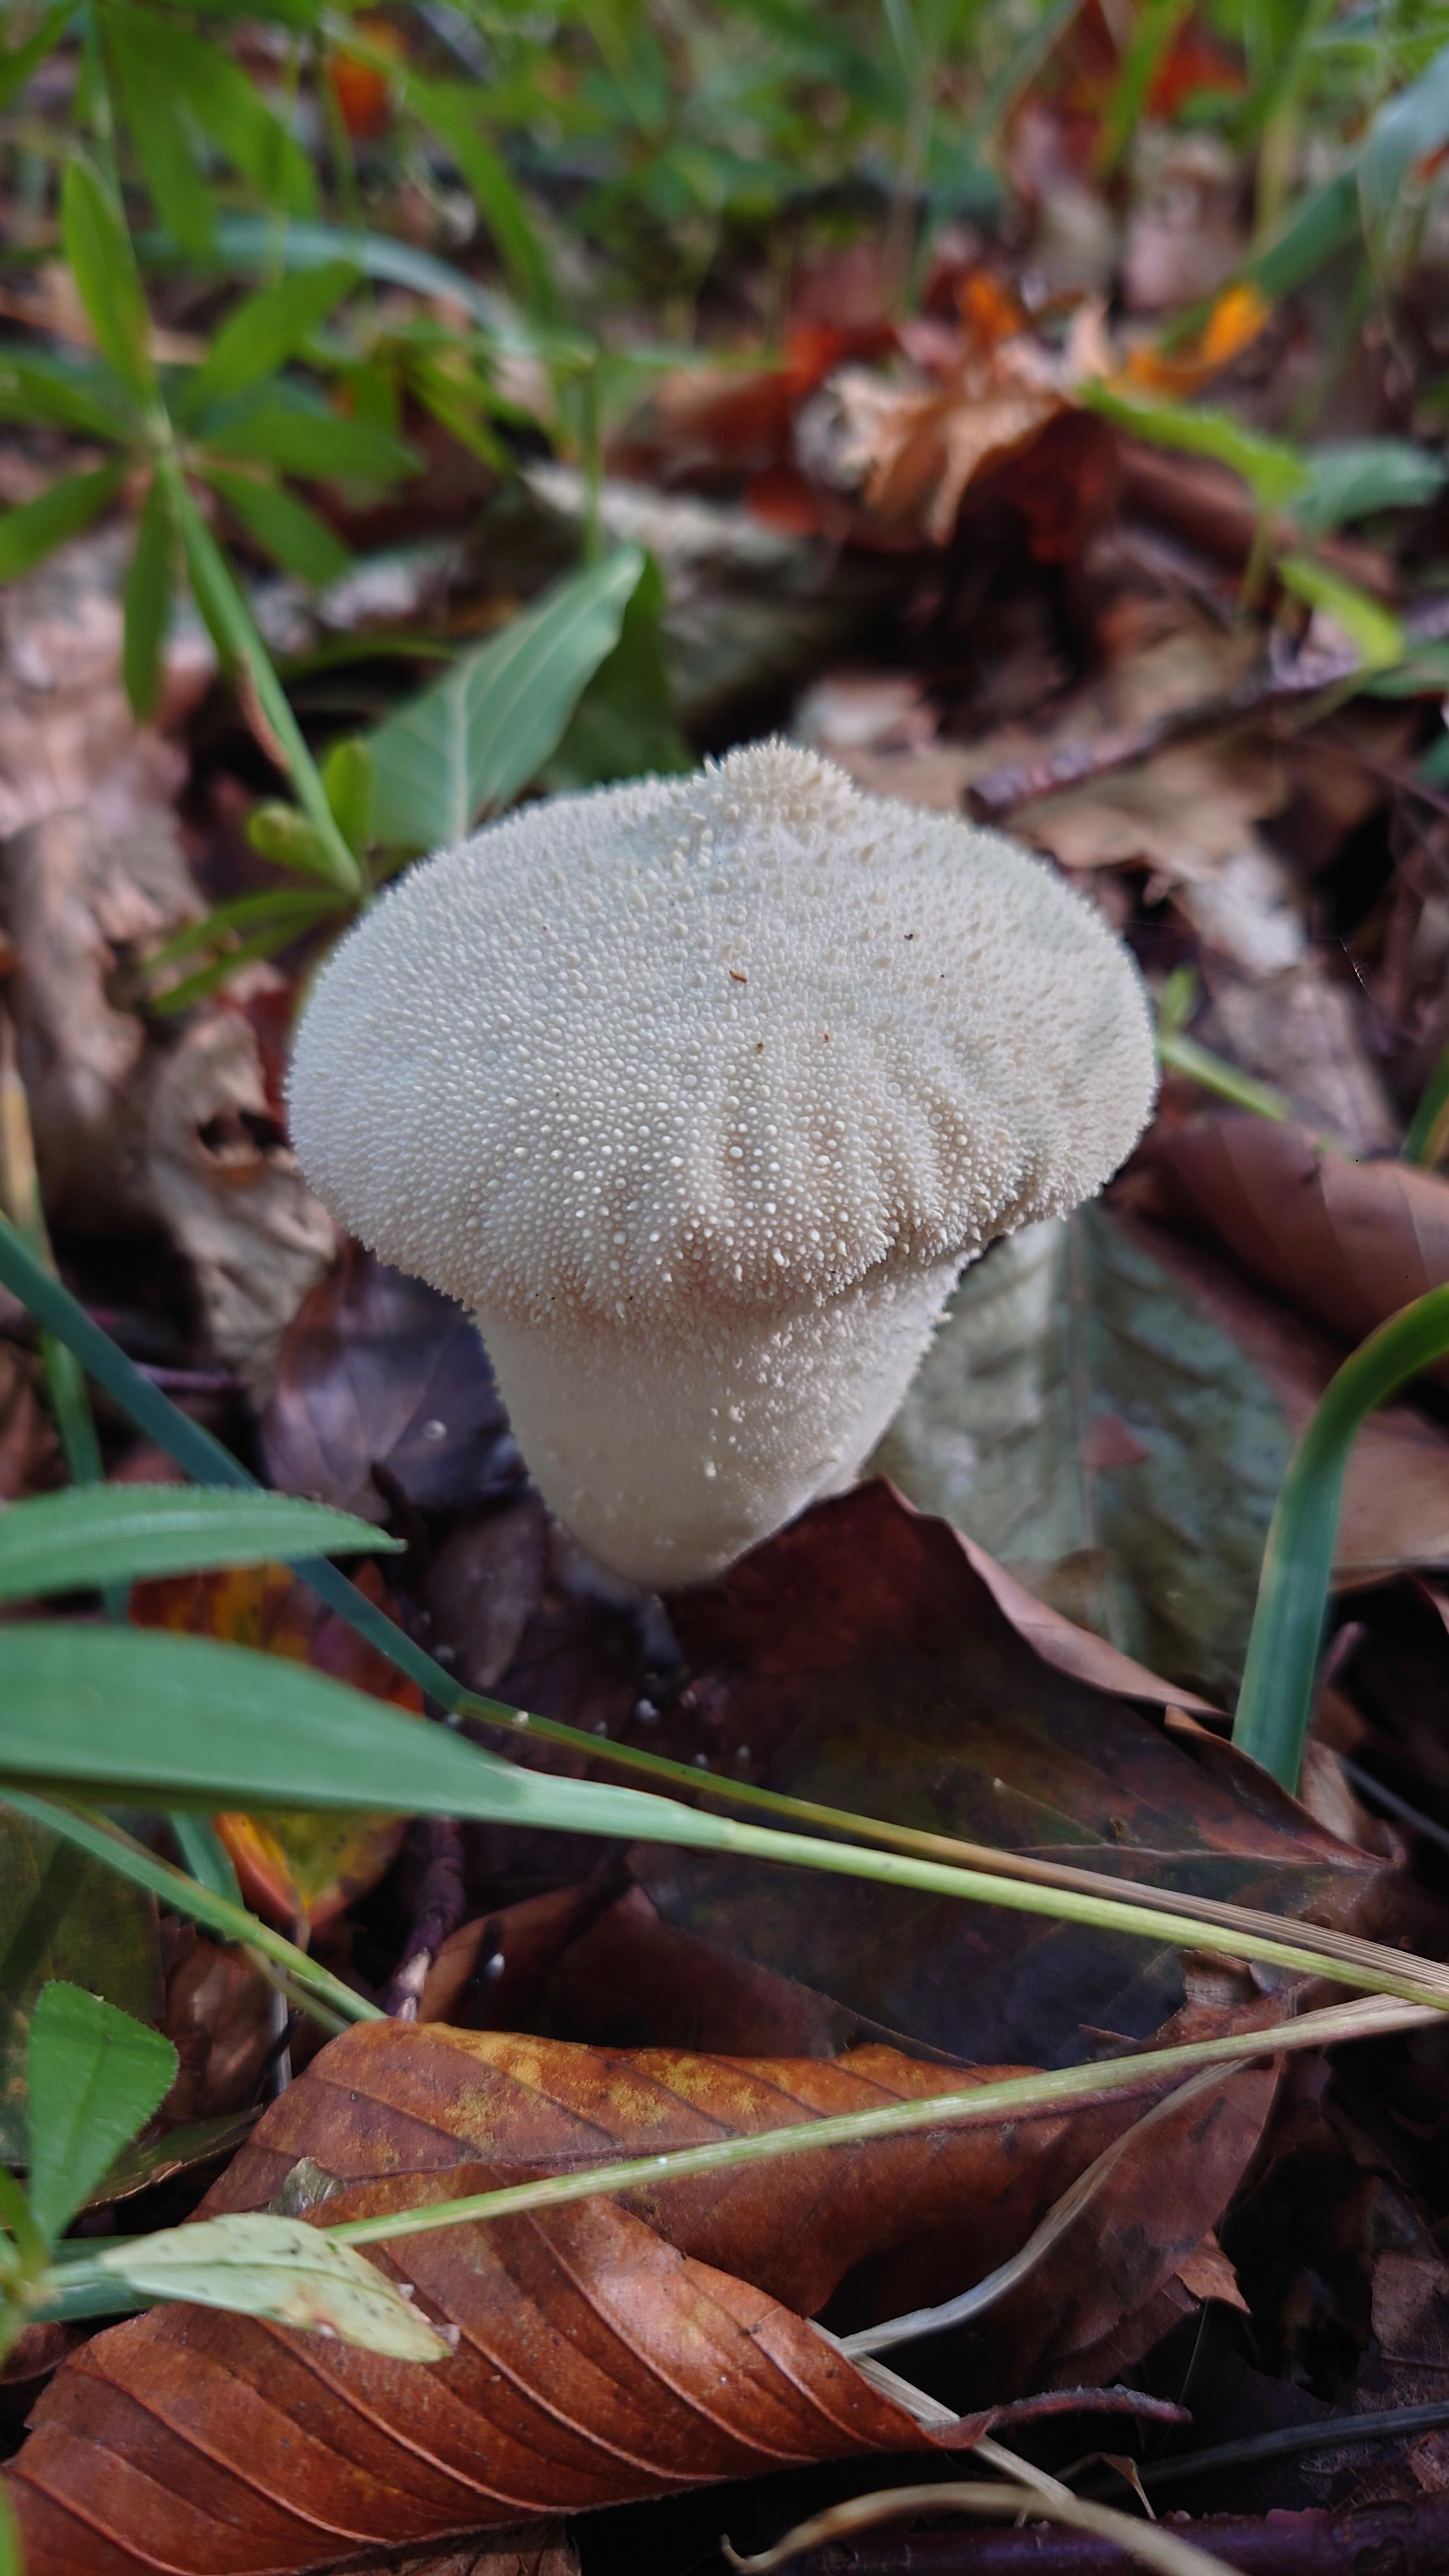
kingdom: Fungi
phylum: Basidiomycota
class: Agaricomycetes
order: Agaricales
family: Lycoperdaceae
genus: Lycoperdon
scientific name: Lycoperdon perlatum
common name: krystal-støvbold
